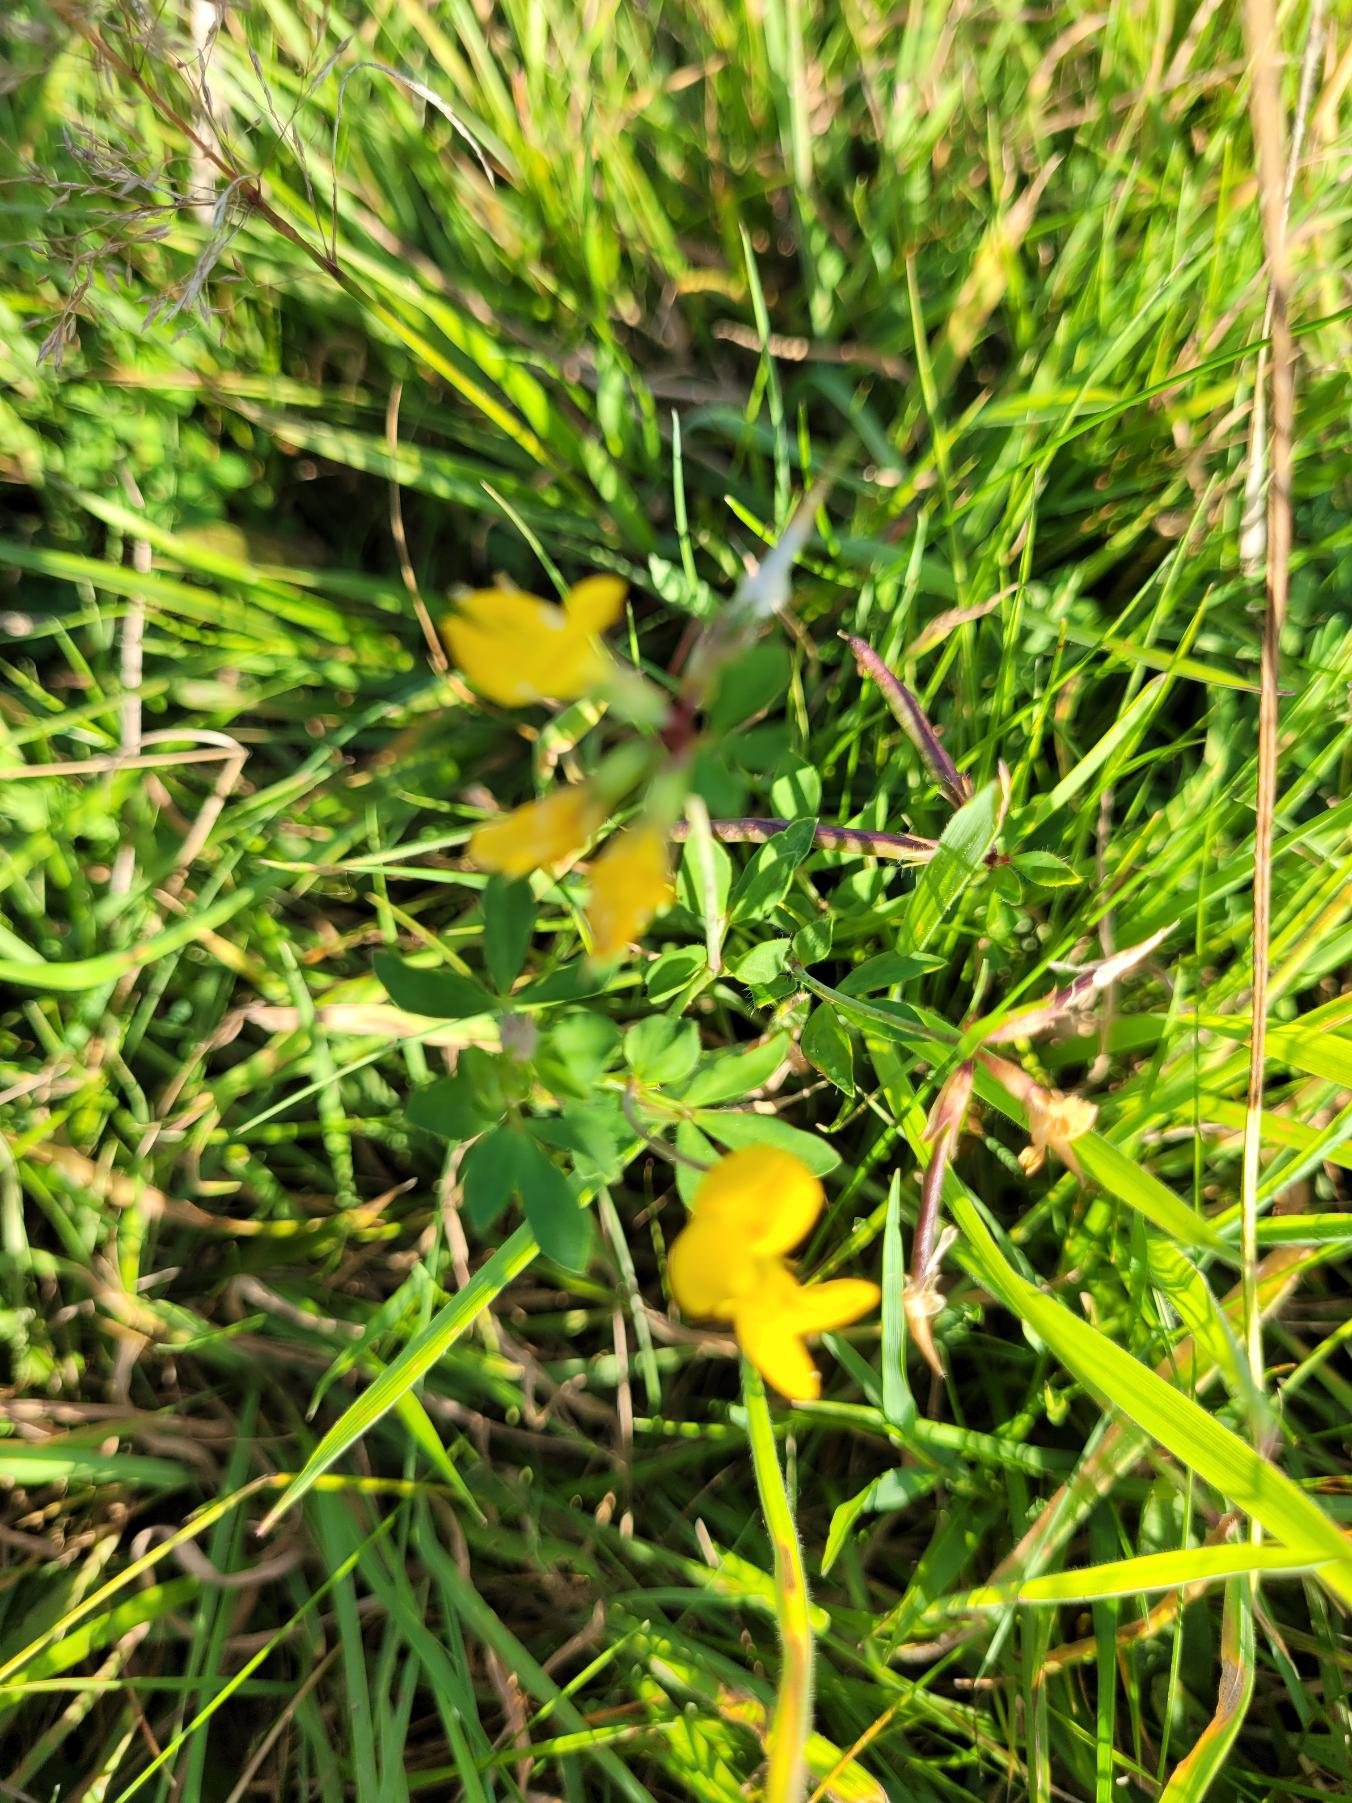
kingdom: Plantae
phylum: Tracheophyta
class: Magnoliopsida
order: Fabales
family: Fabaceae
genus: Lotus
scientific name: Lotus corniculatus
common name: Almindelig kællingetand
